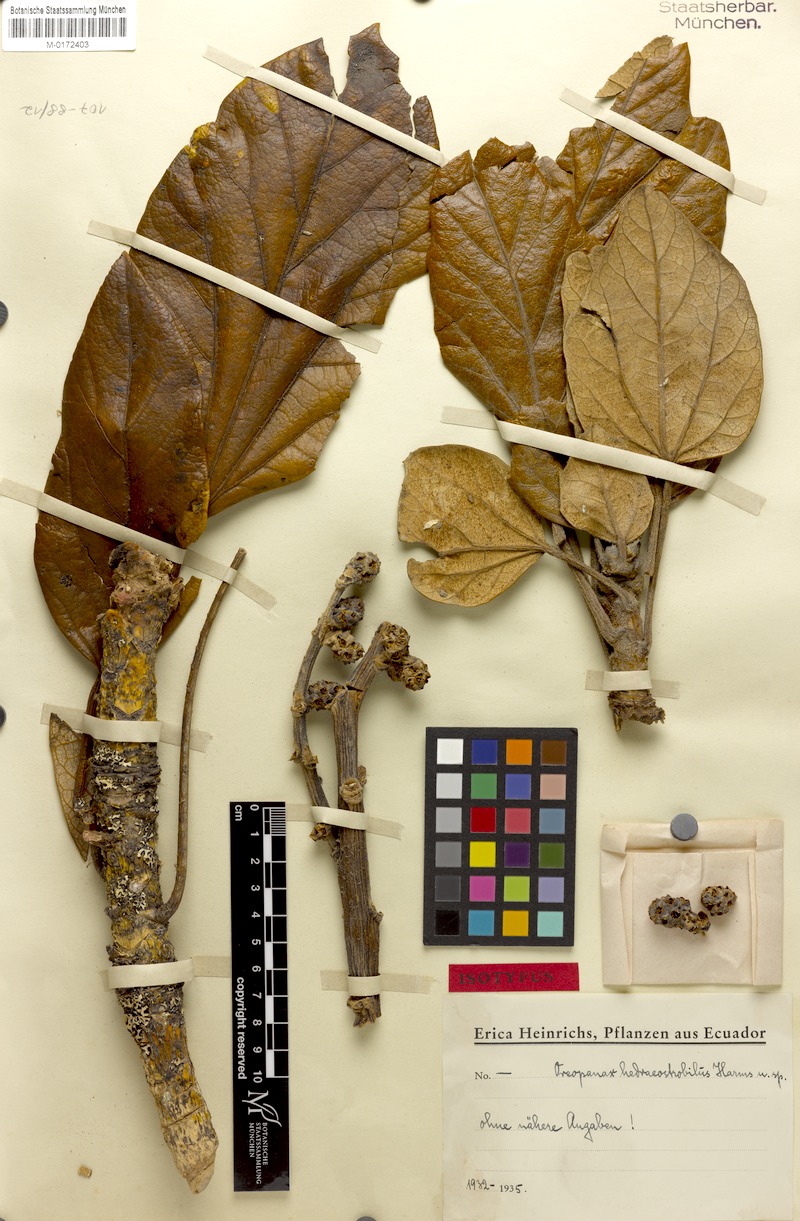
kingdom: Plantae
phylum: Tracheophyta
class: Magnoliopsida
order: Apiales
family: Araliaceae
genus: Oreopanax
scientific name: Oreopanax hedraeostrobilus
